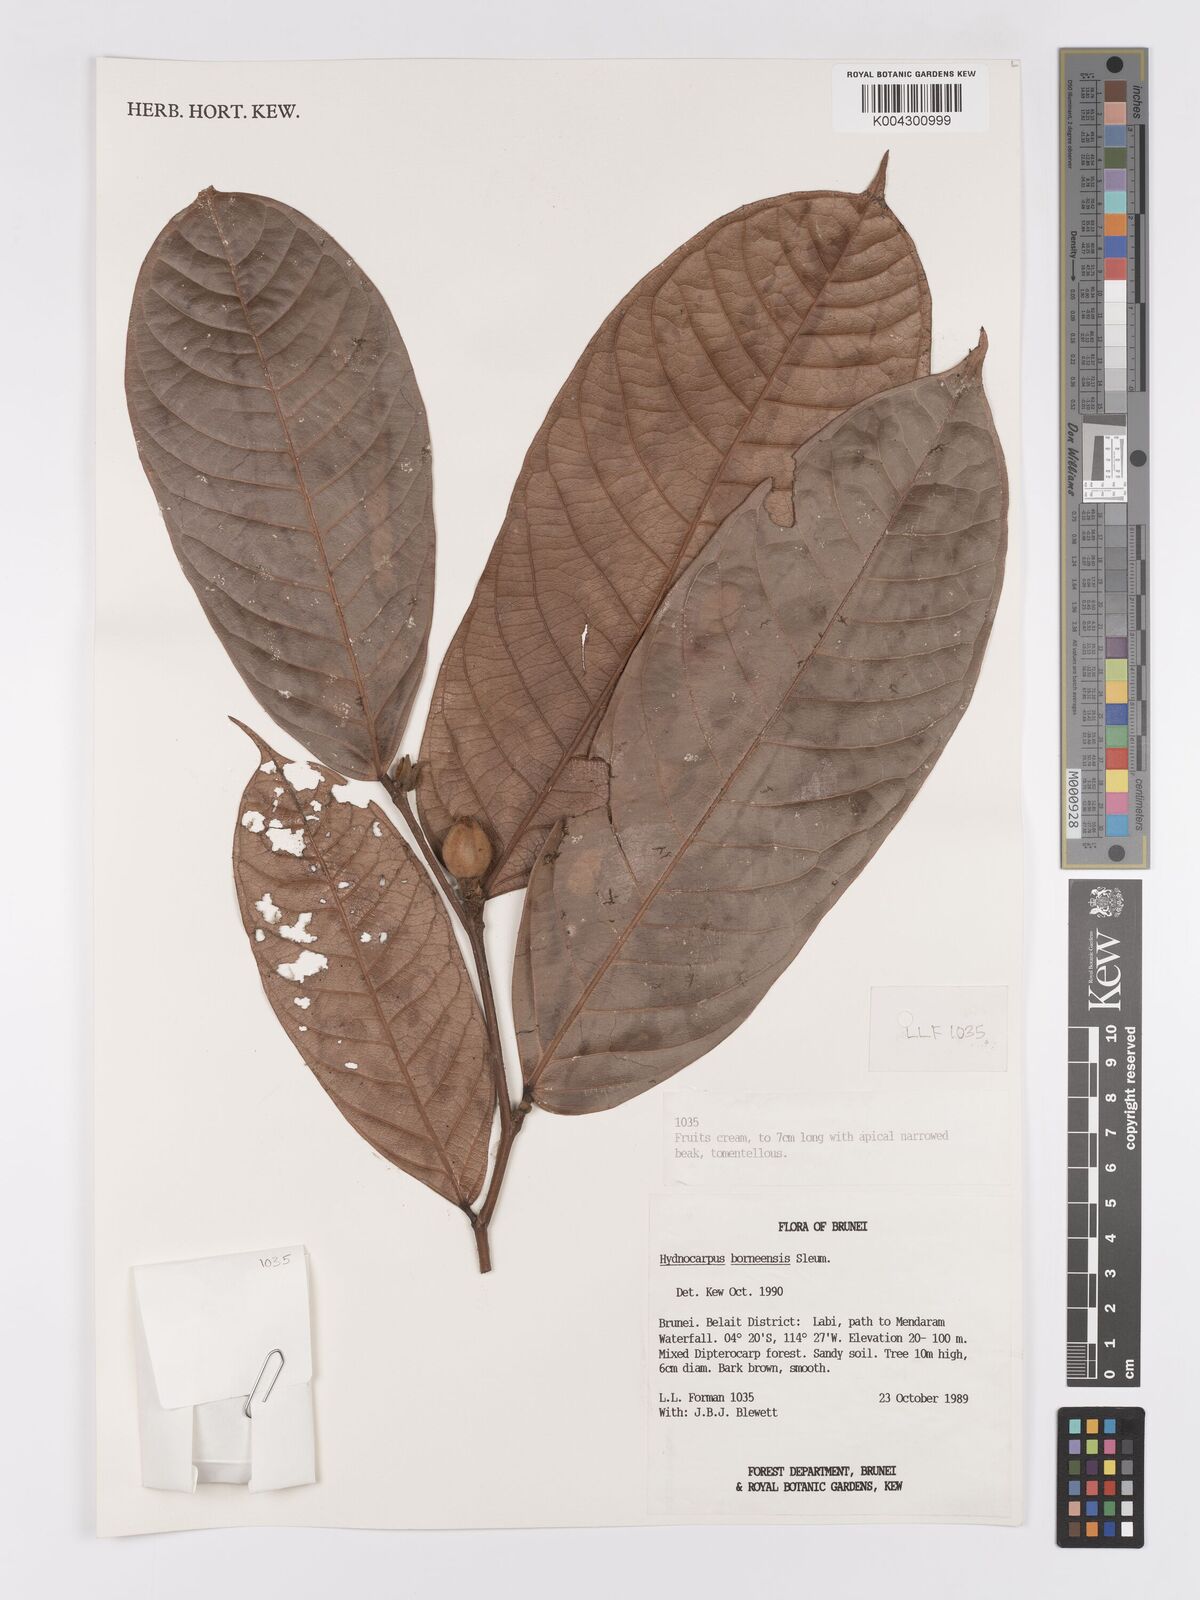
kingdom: Plantae
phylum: Tracheophyta
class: Magnoliopsida
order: Malpighiales
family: Achariaceae
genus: Hydnocarpus
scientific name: Hydnocarpus borneensis
